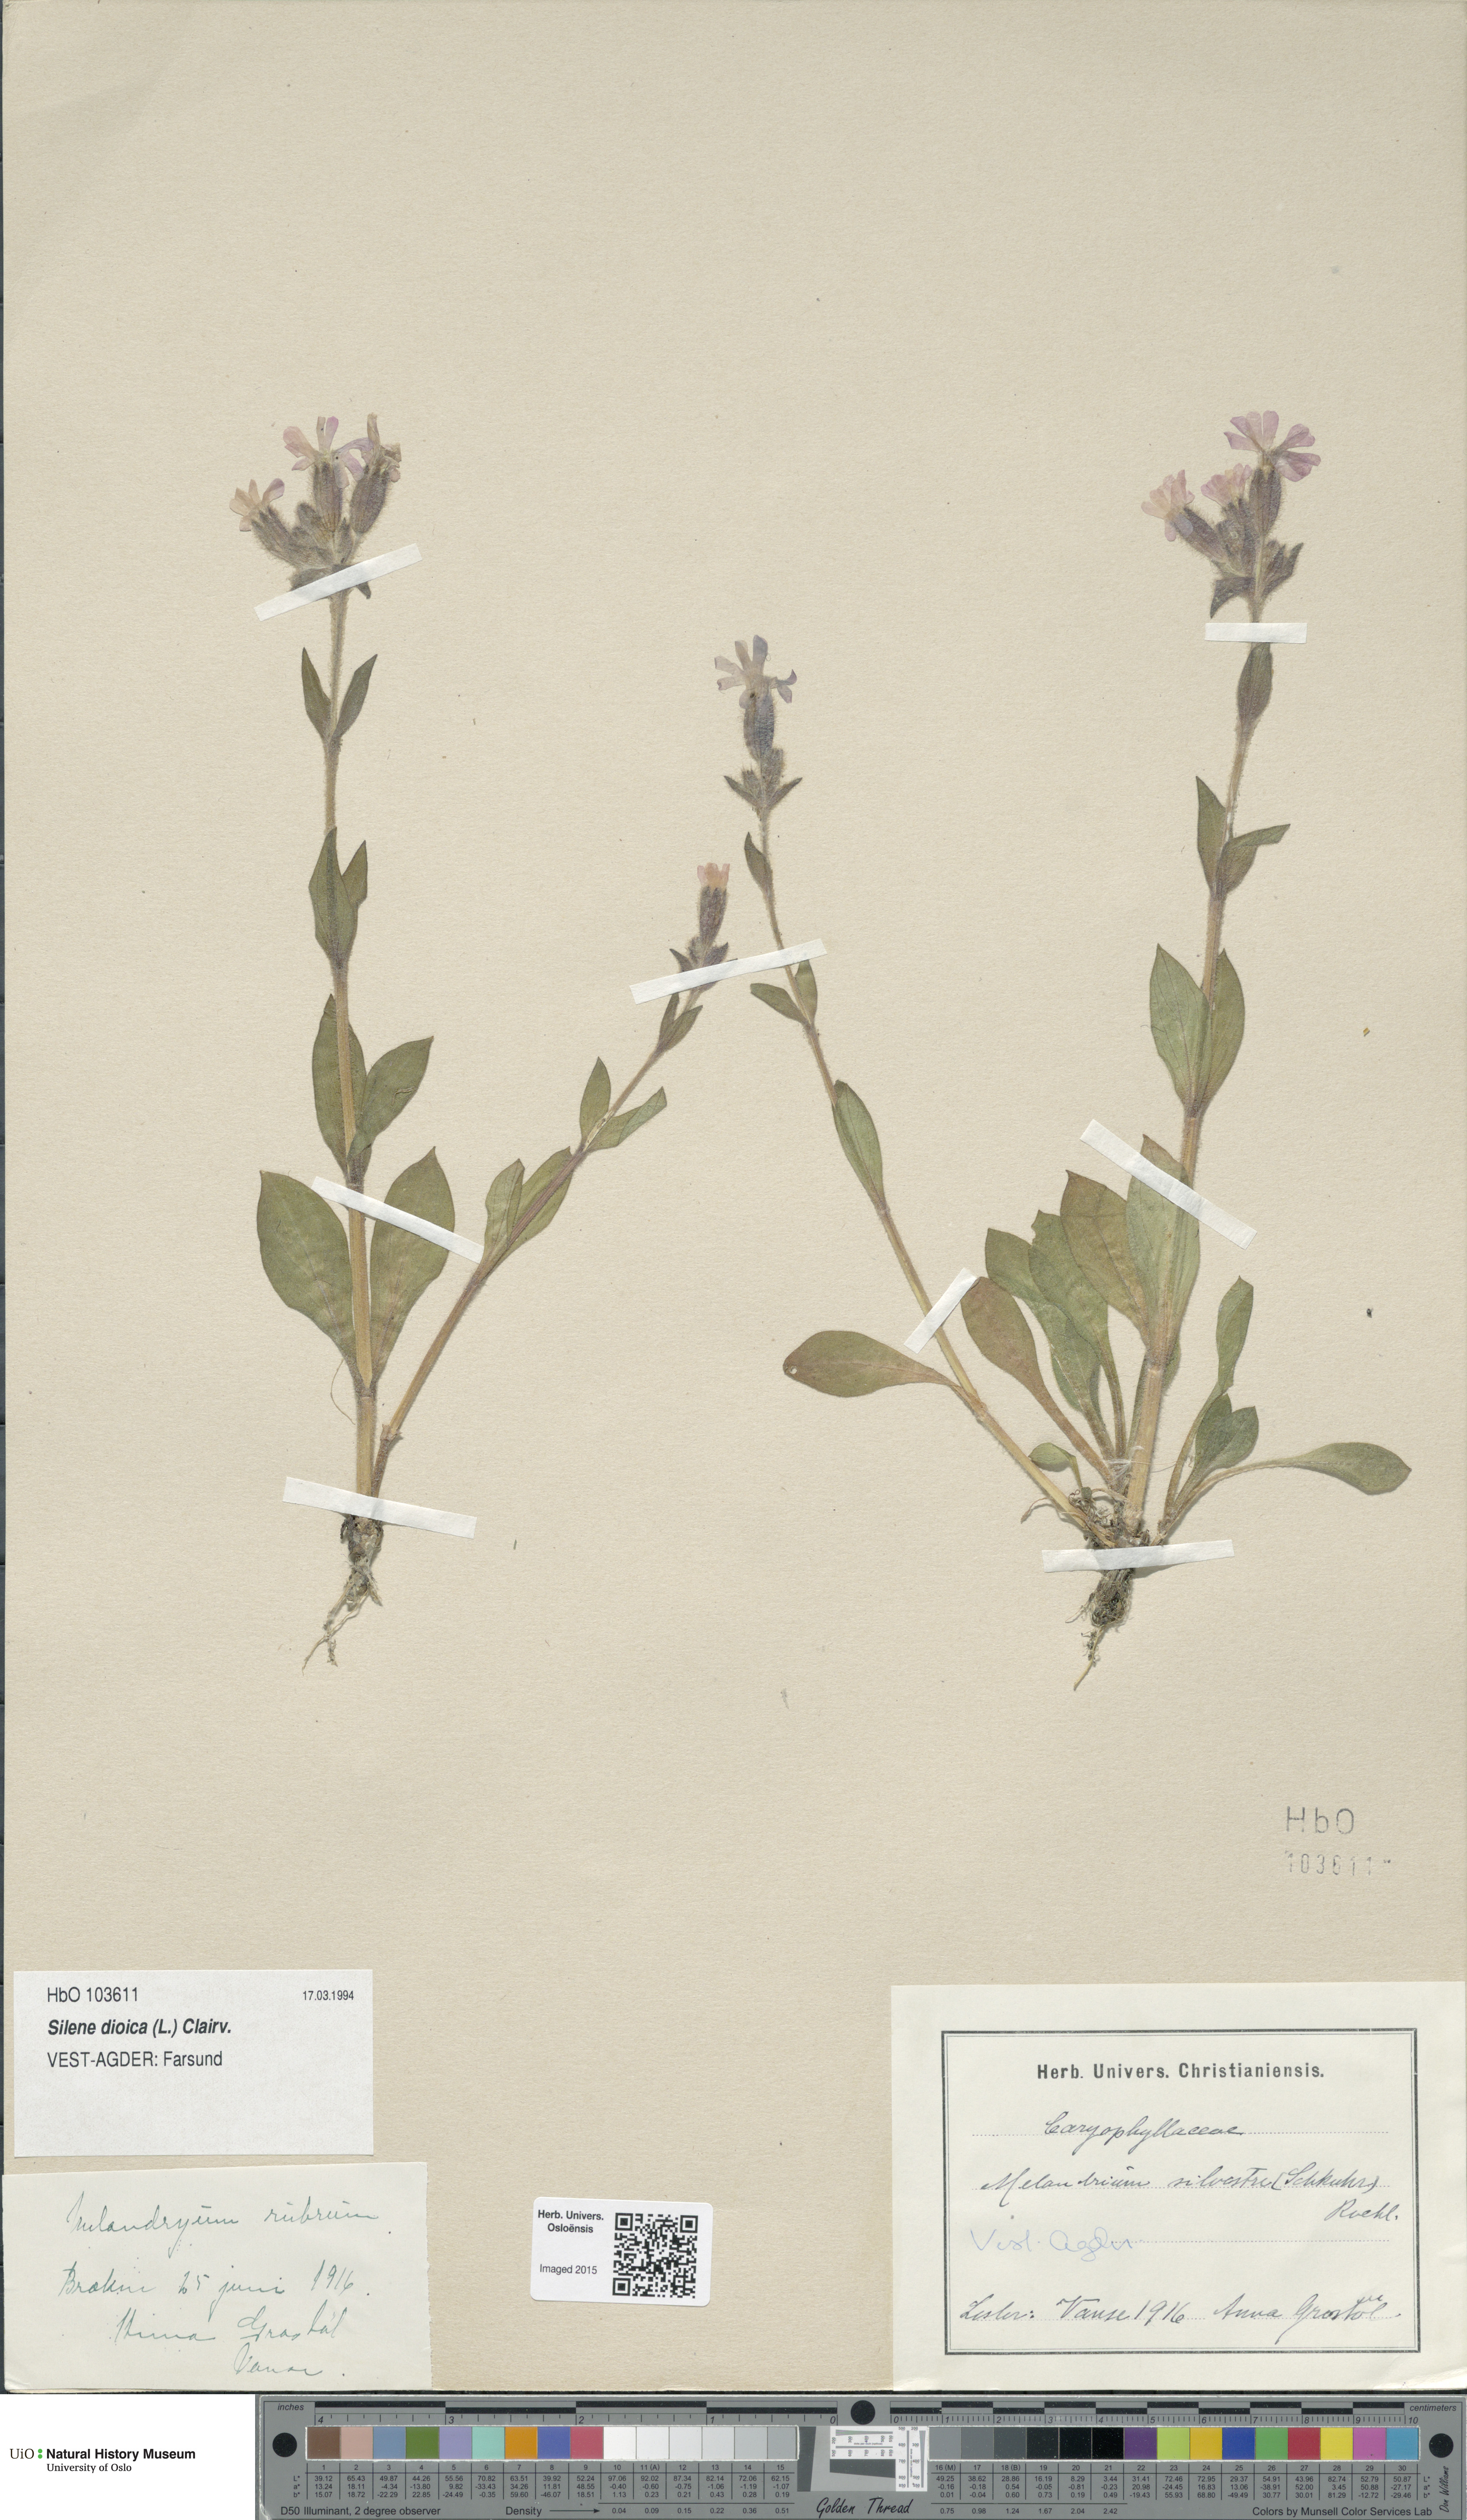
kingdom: Plantae
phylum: Tracheophyta
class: Magnoliopsida
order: Caryophyllales
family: Caryophyllaceae
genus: Silene
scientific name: Silene dioica
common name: Red campion
